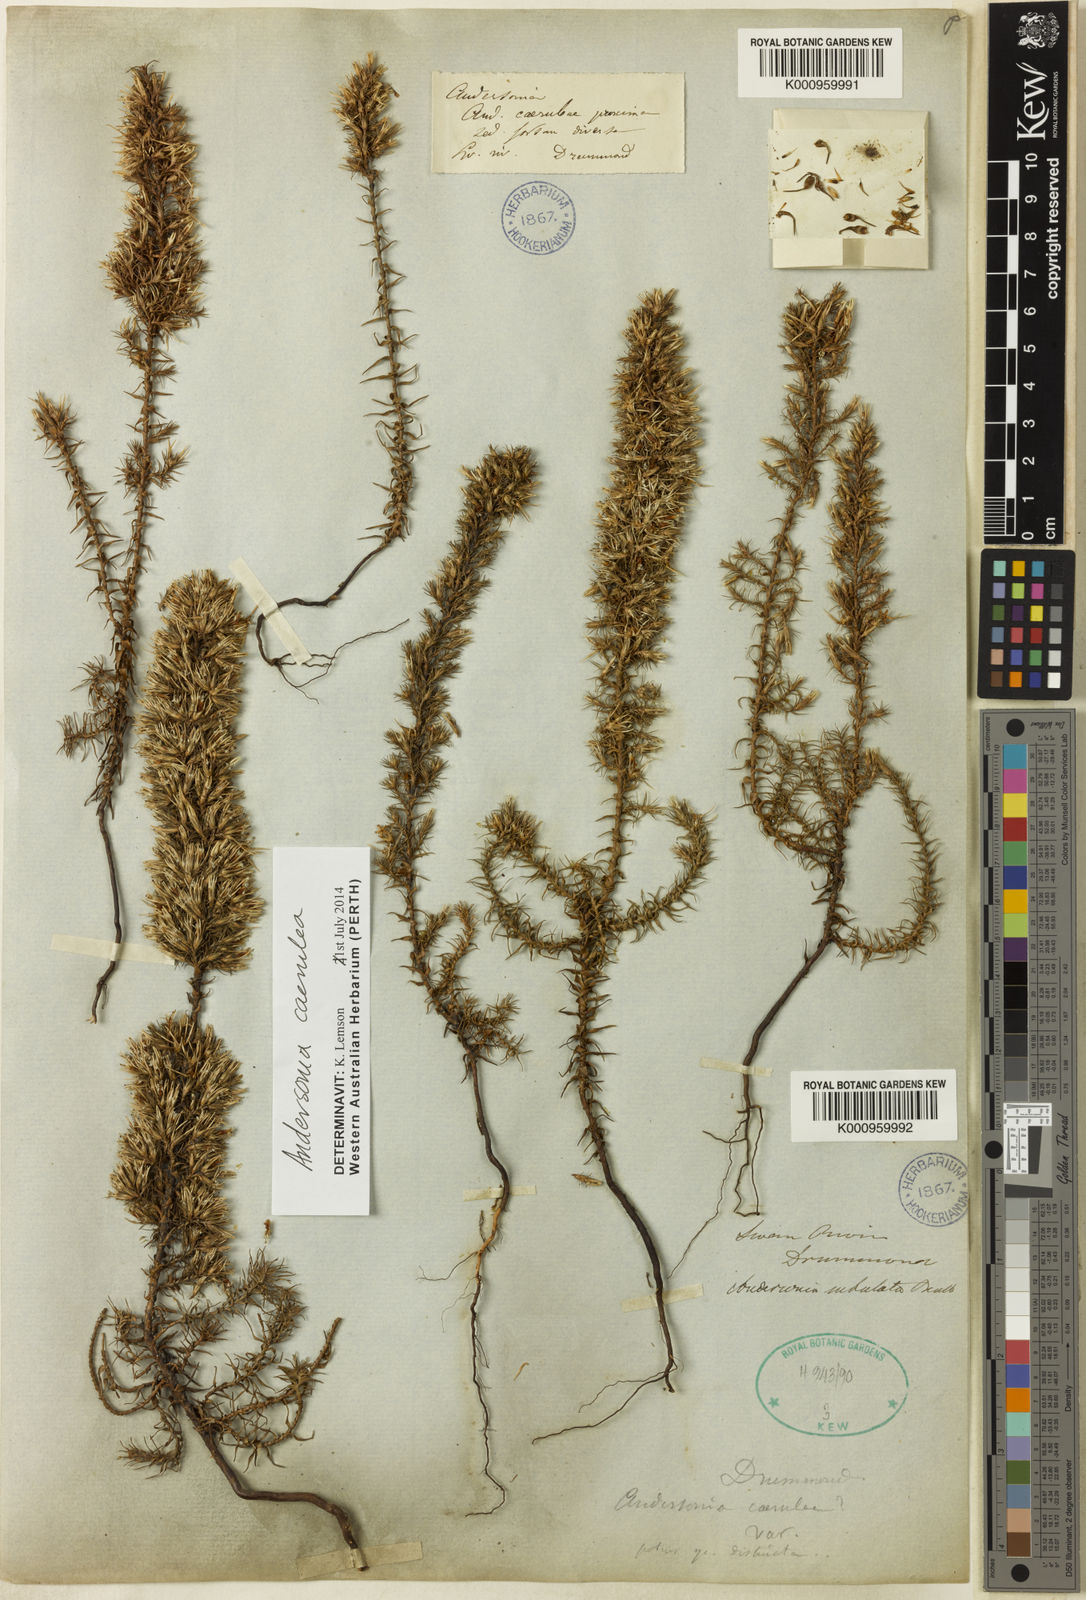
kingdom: Plantae
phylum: Tracheophyta
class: Magnoliopsida
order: Ericales
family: Ericaceae
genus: Andersonia
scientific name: Andersonia caerulea
